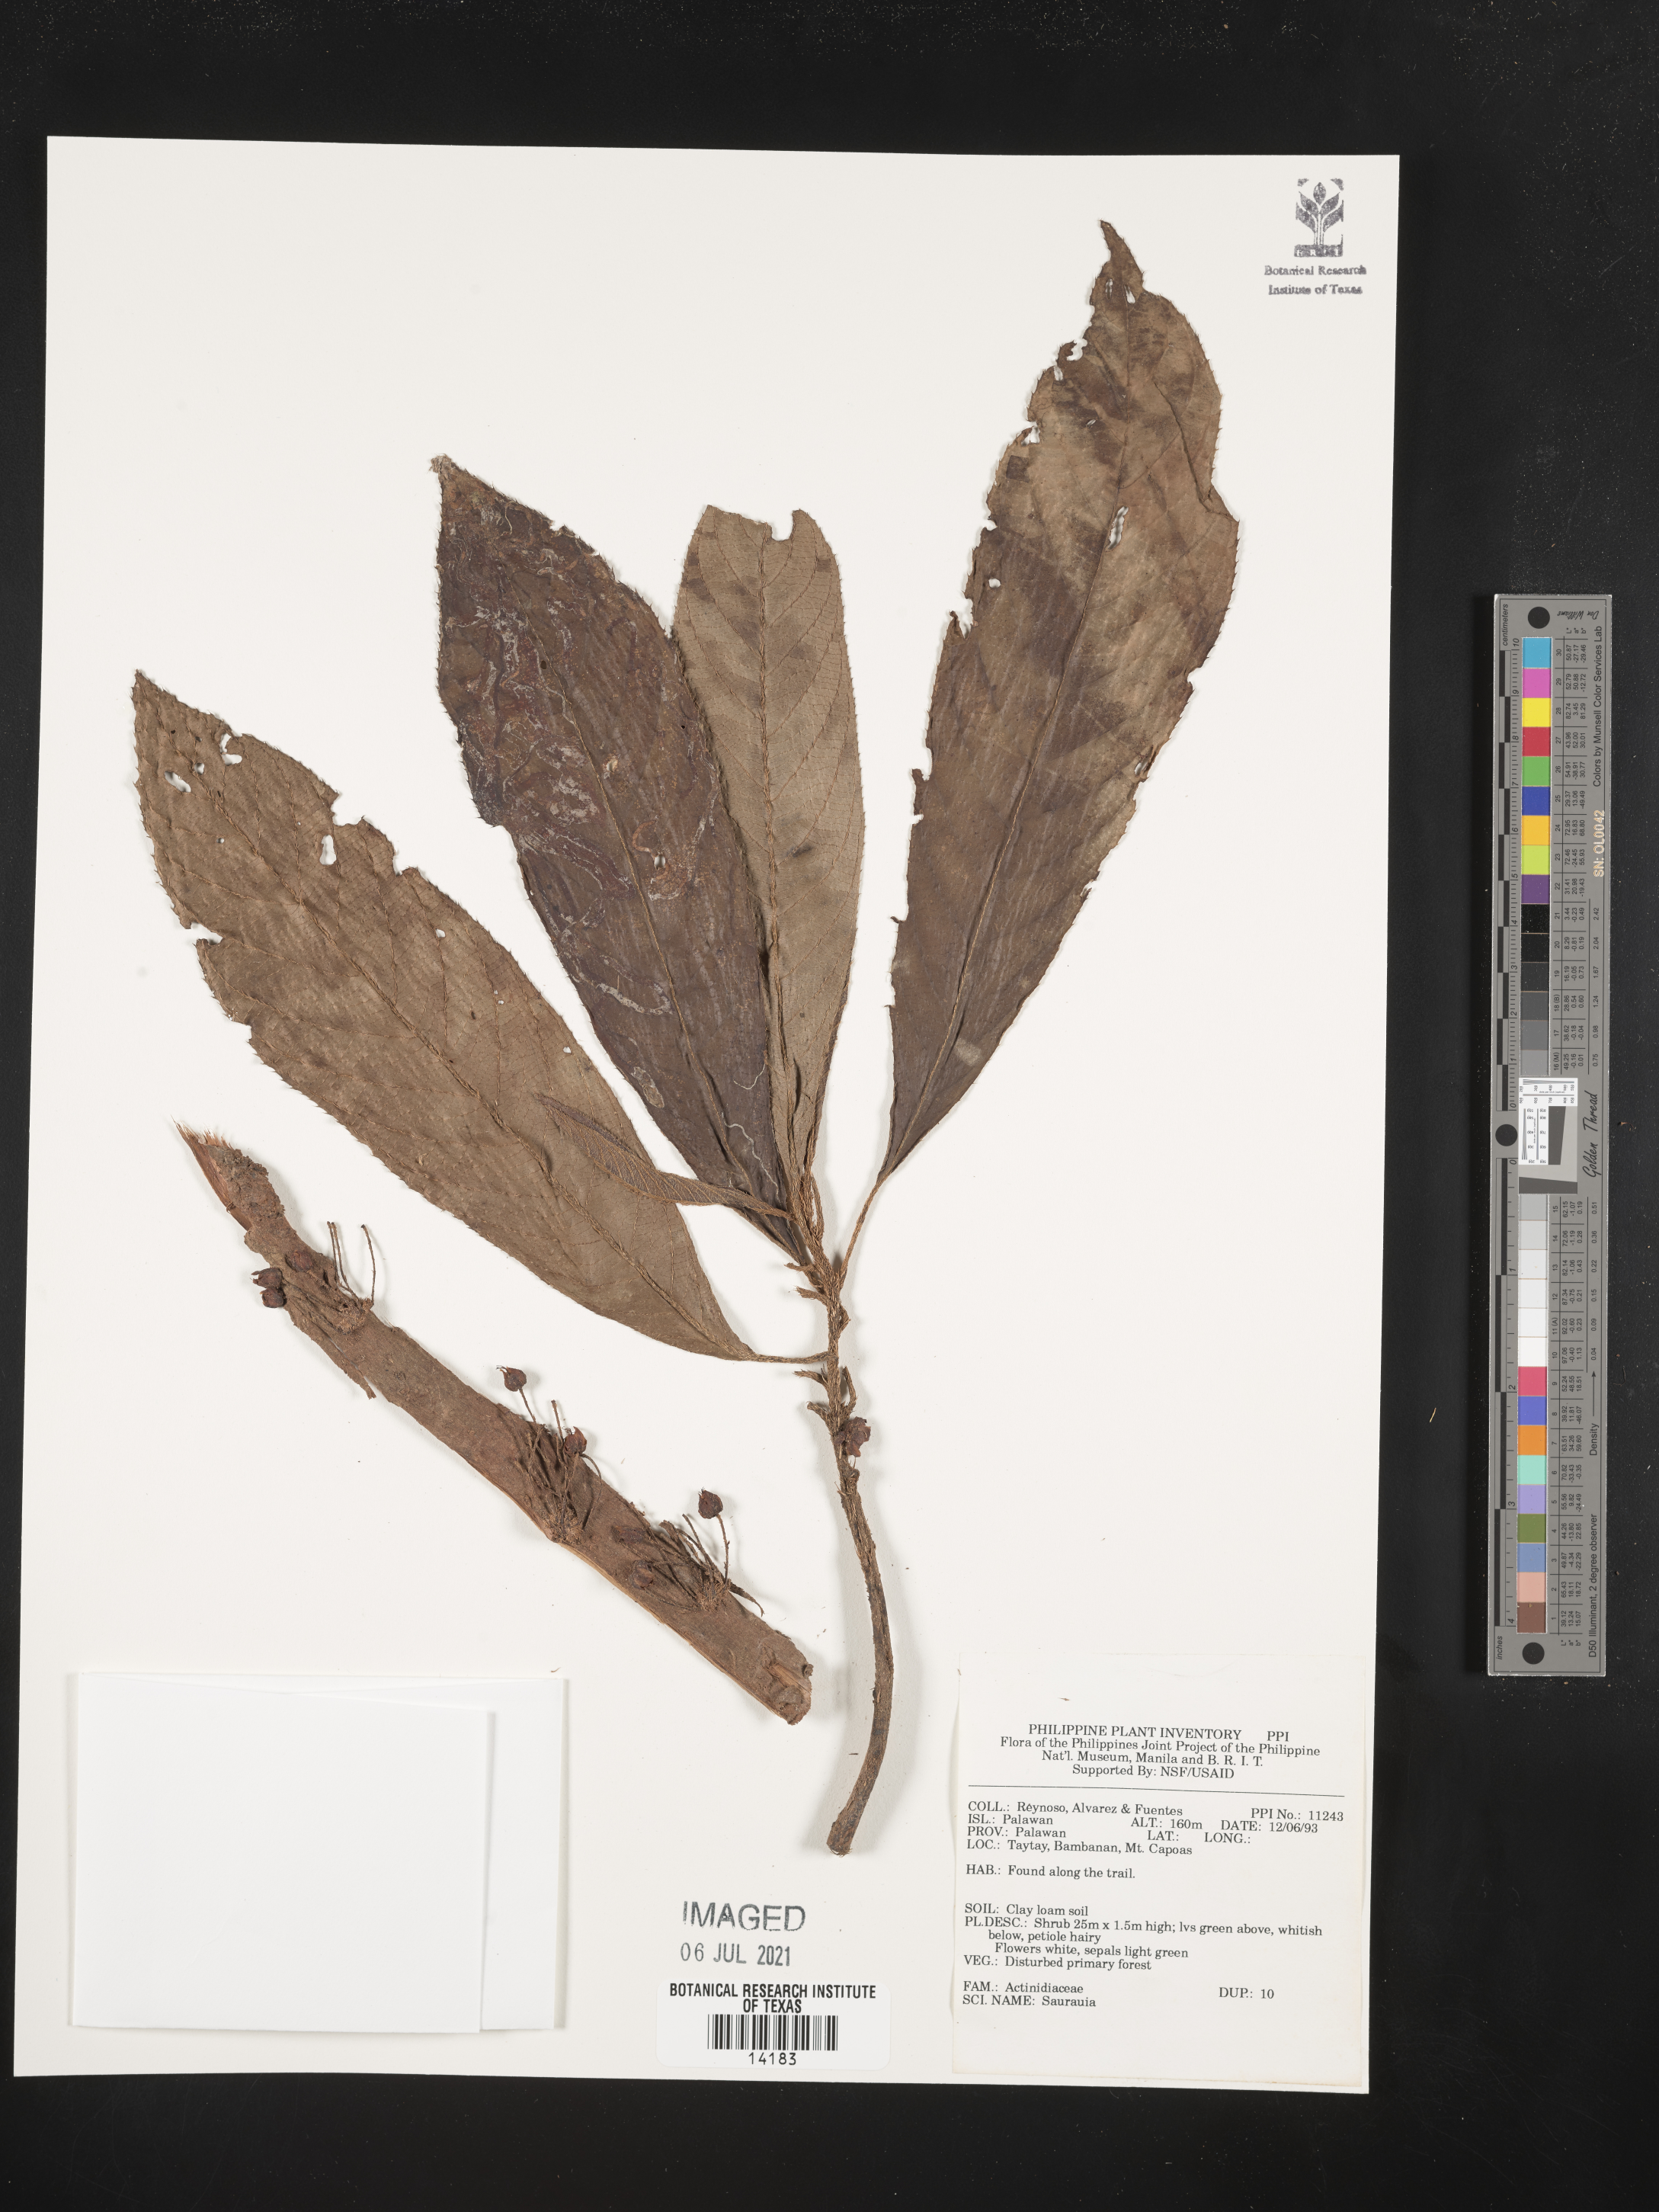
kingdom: Plantae
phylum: Tracheophyta
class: Magnoliopsida
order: Ericales
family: Actinidiaceae
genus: Saurauia
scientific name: Saurauia
